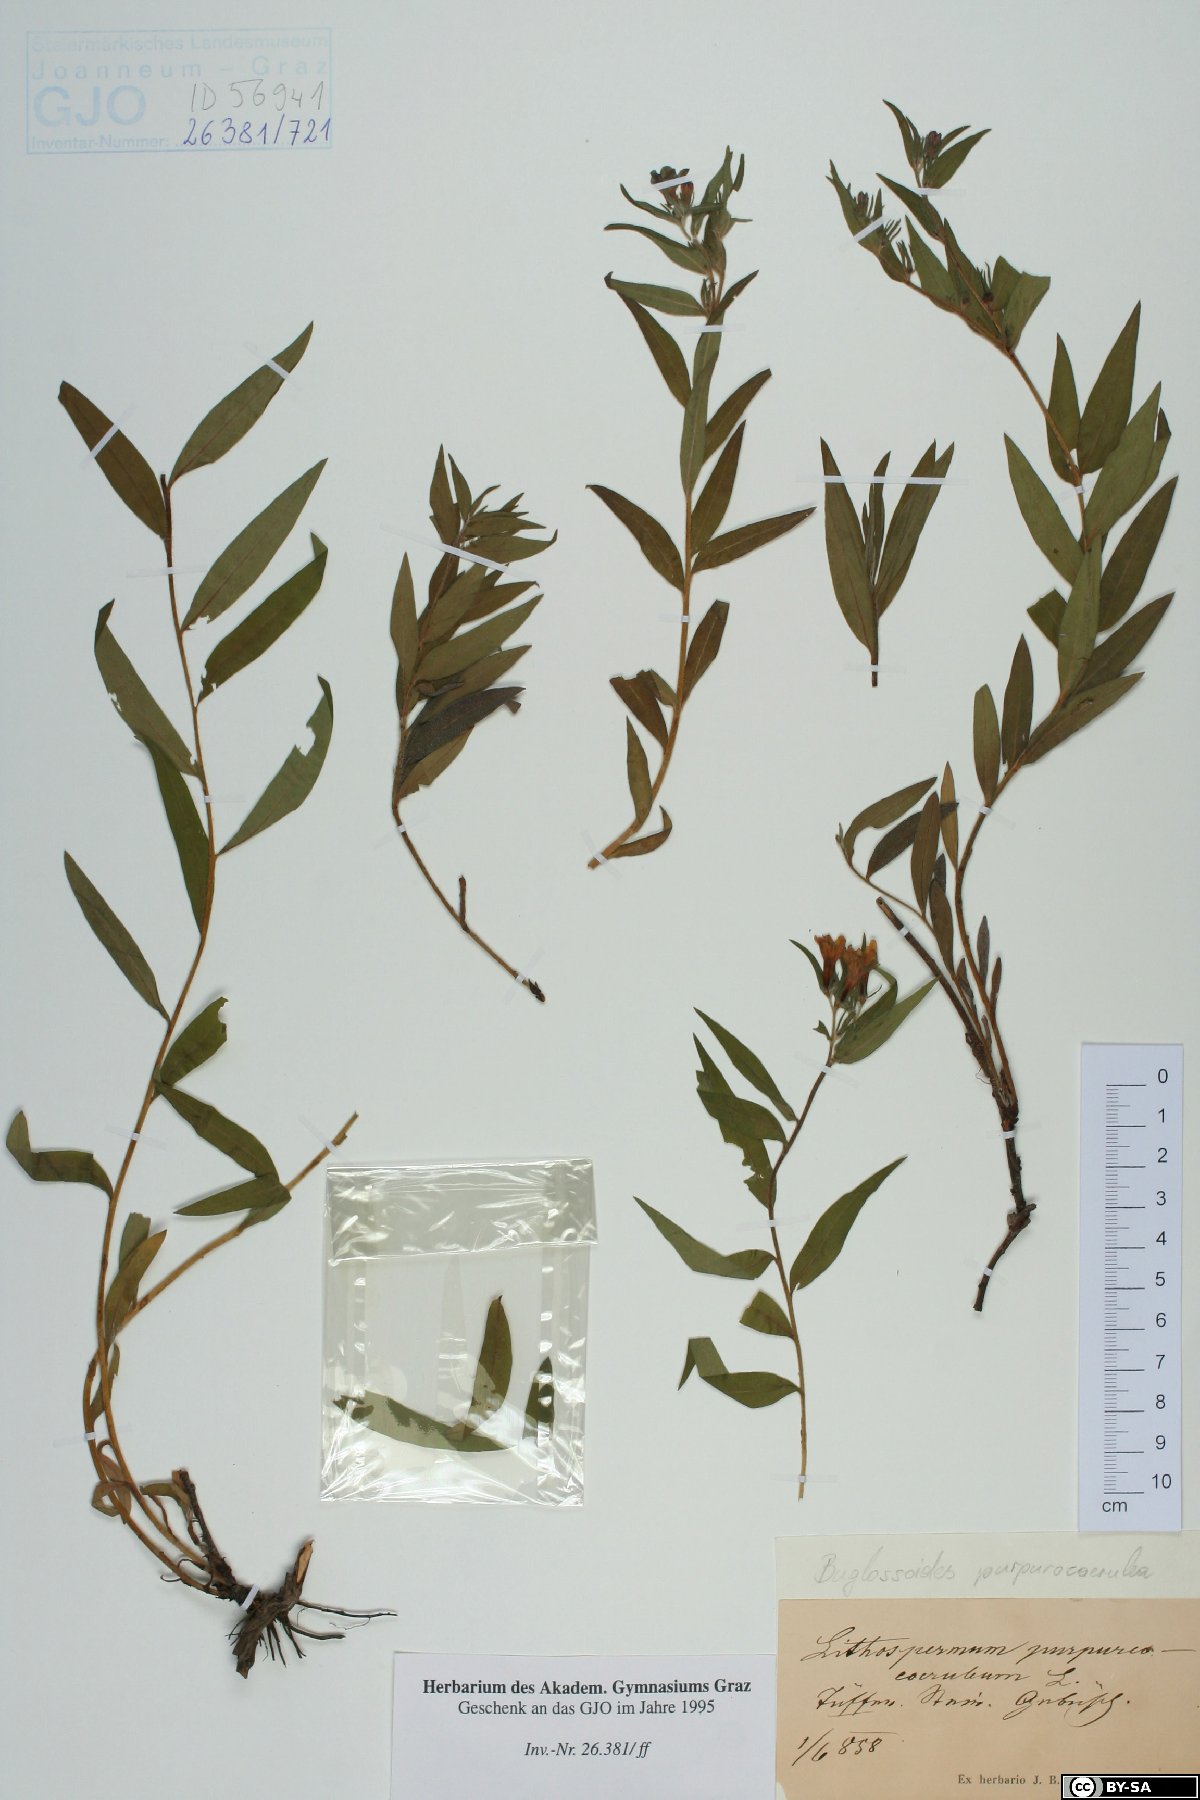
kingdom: Plantae
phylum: Tracheophyta
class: Magnoliopsida
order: Boraginales
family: Boraginaceae
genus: Aegonychon
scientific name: Aegonychon purpurocaeruleum
